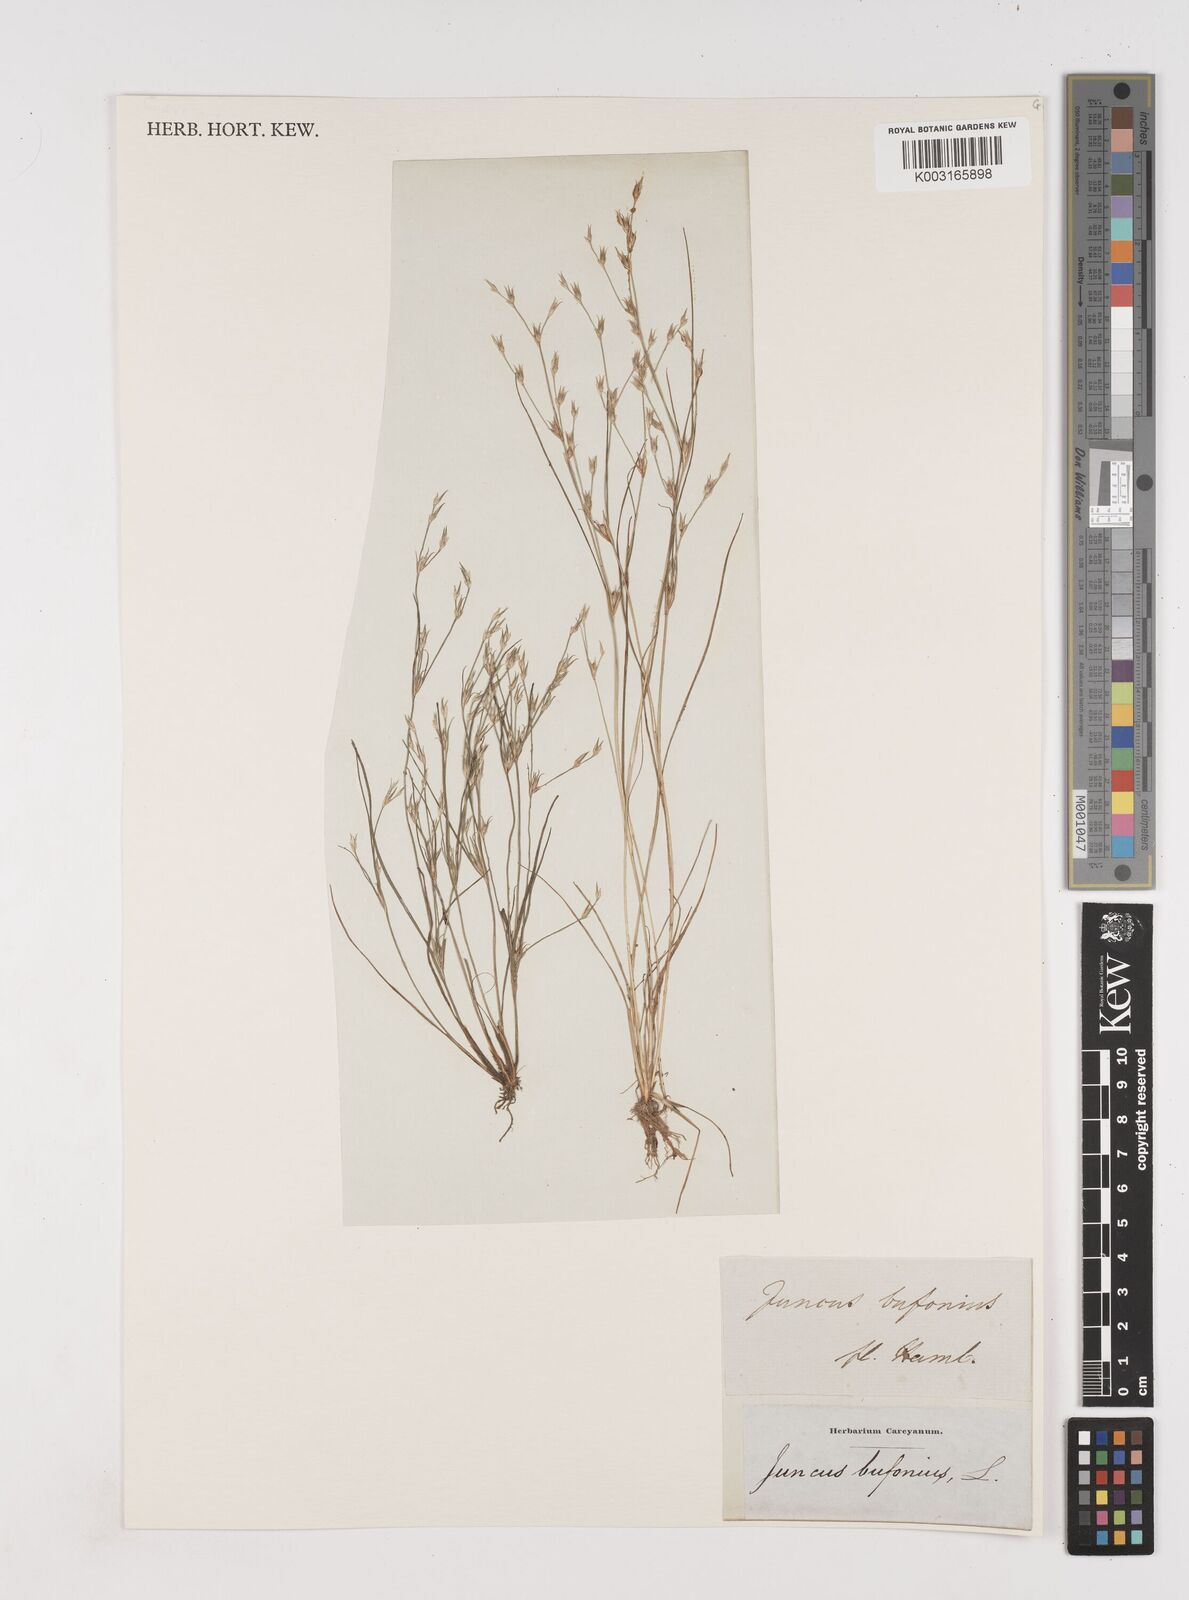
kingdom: Plantae
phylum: Tracheophyta
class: Liliopsida
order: Poales
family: Juncaceae
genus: Juncus
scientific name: Juncus bufonius
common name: Toad rush
